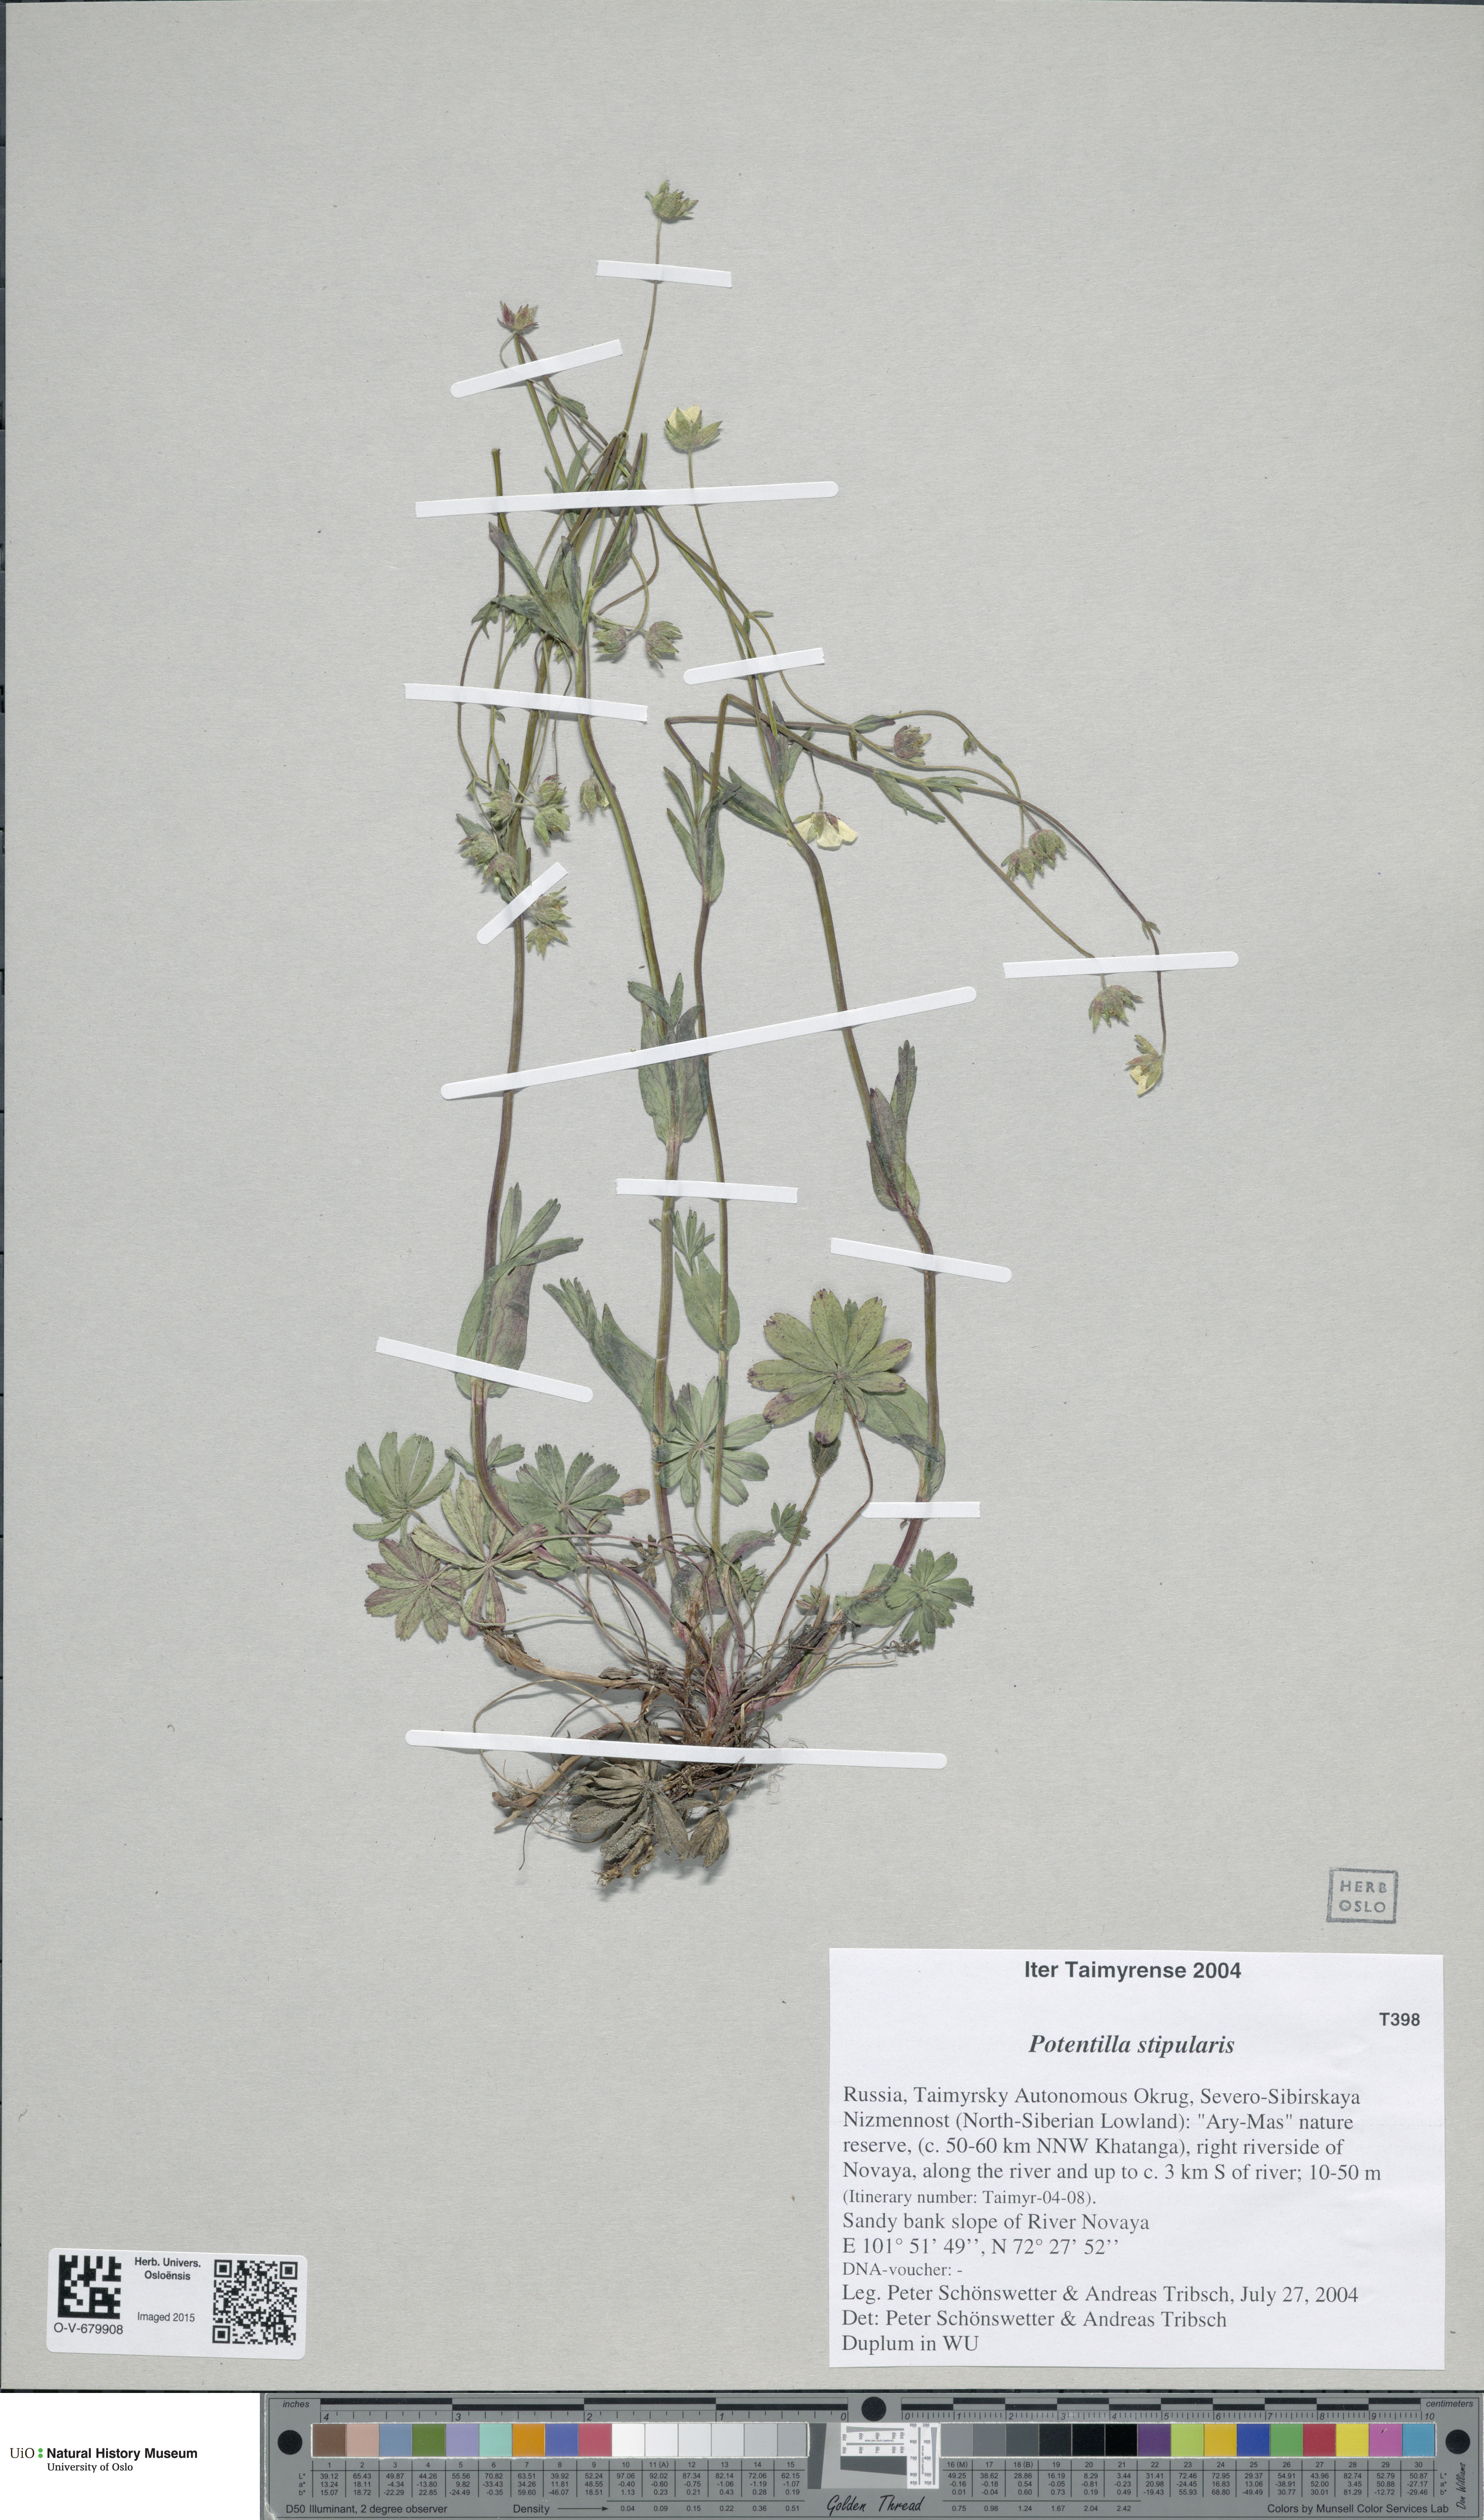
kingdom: Plantae
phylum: Tracheophyta
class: Magnoliopsida
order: Rosales
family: Rosaceae
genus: Potentilla
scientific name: Potentilla stipularis
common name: Circumpolar cinquefoil
